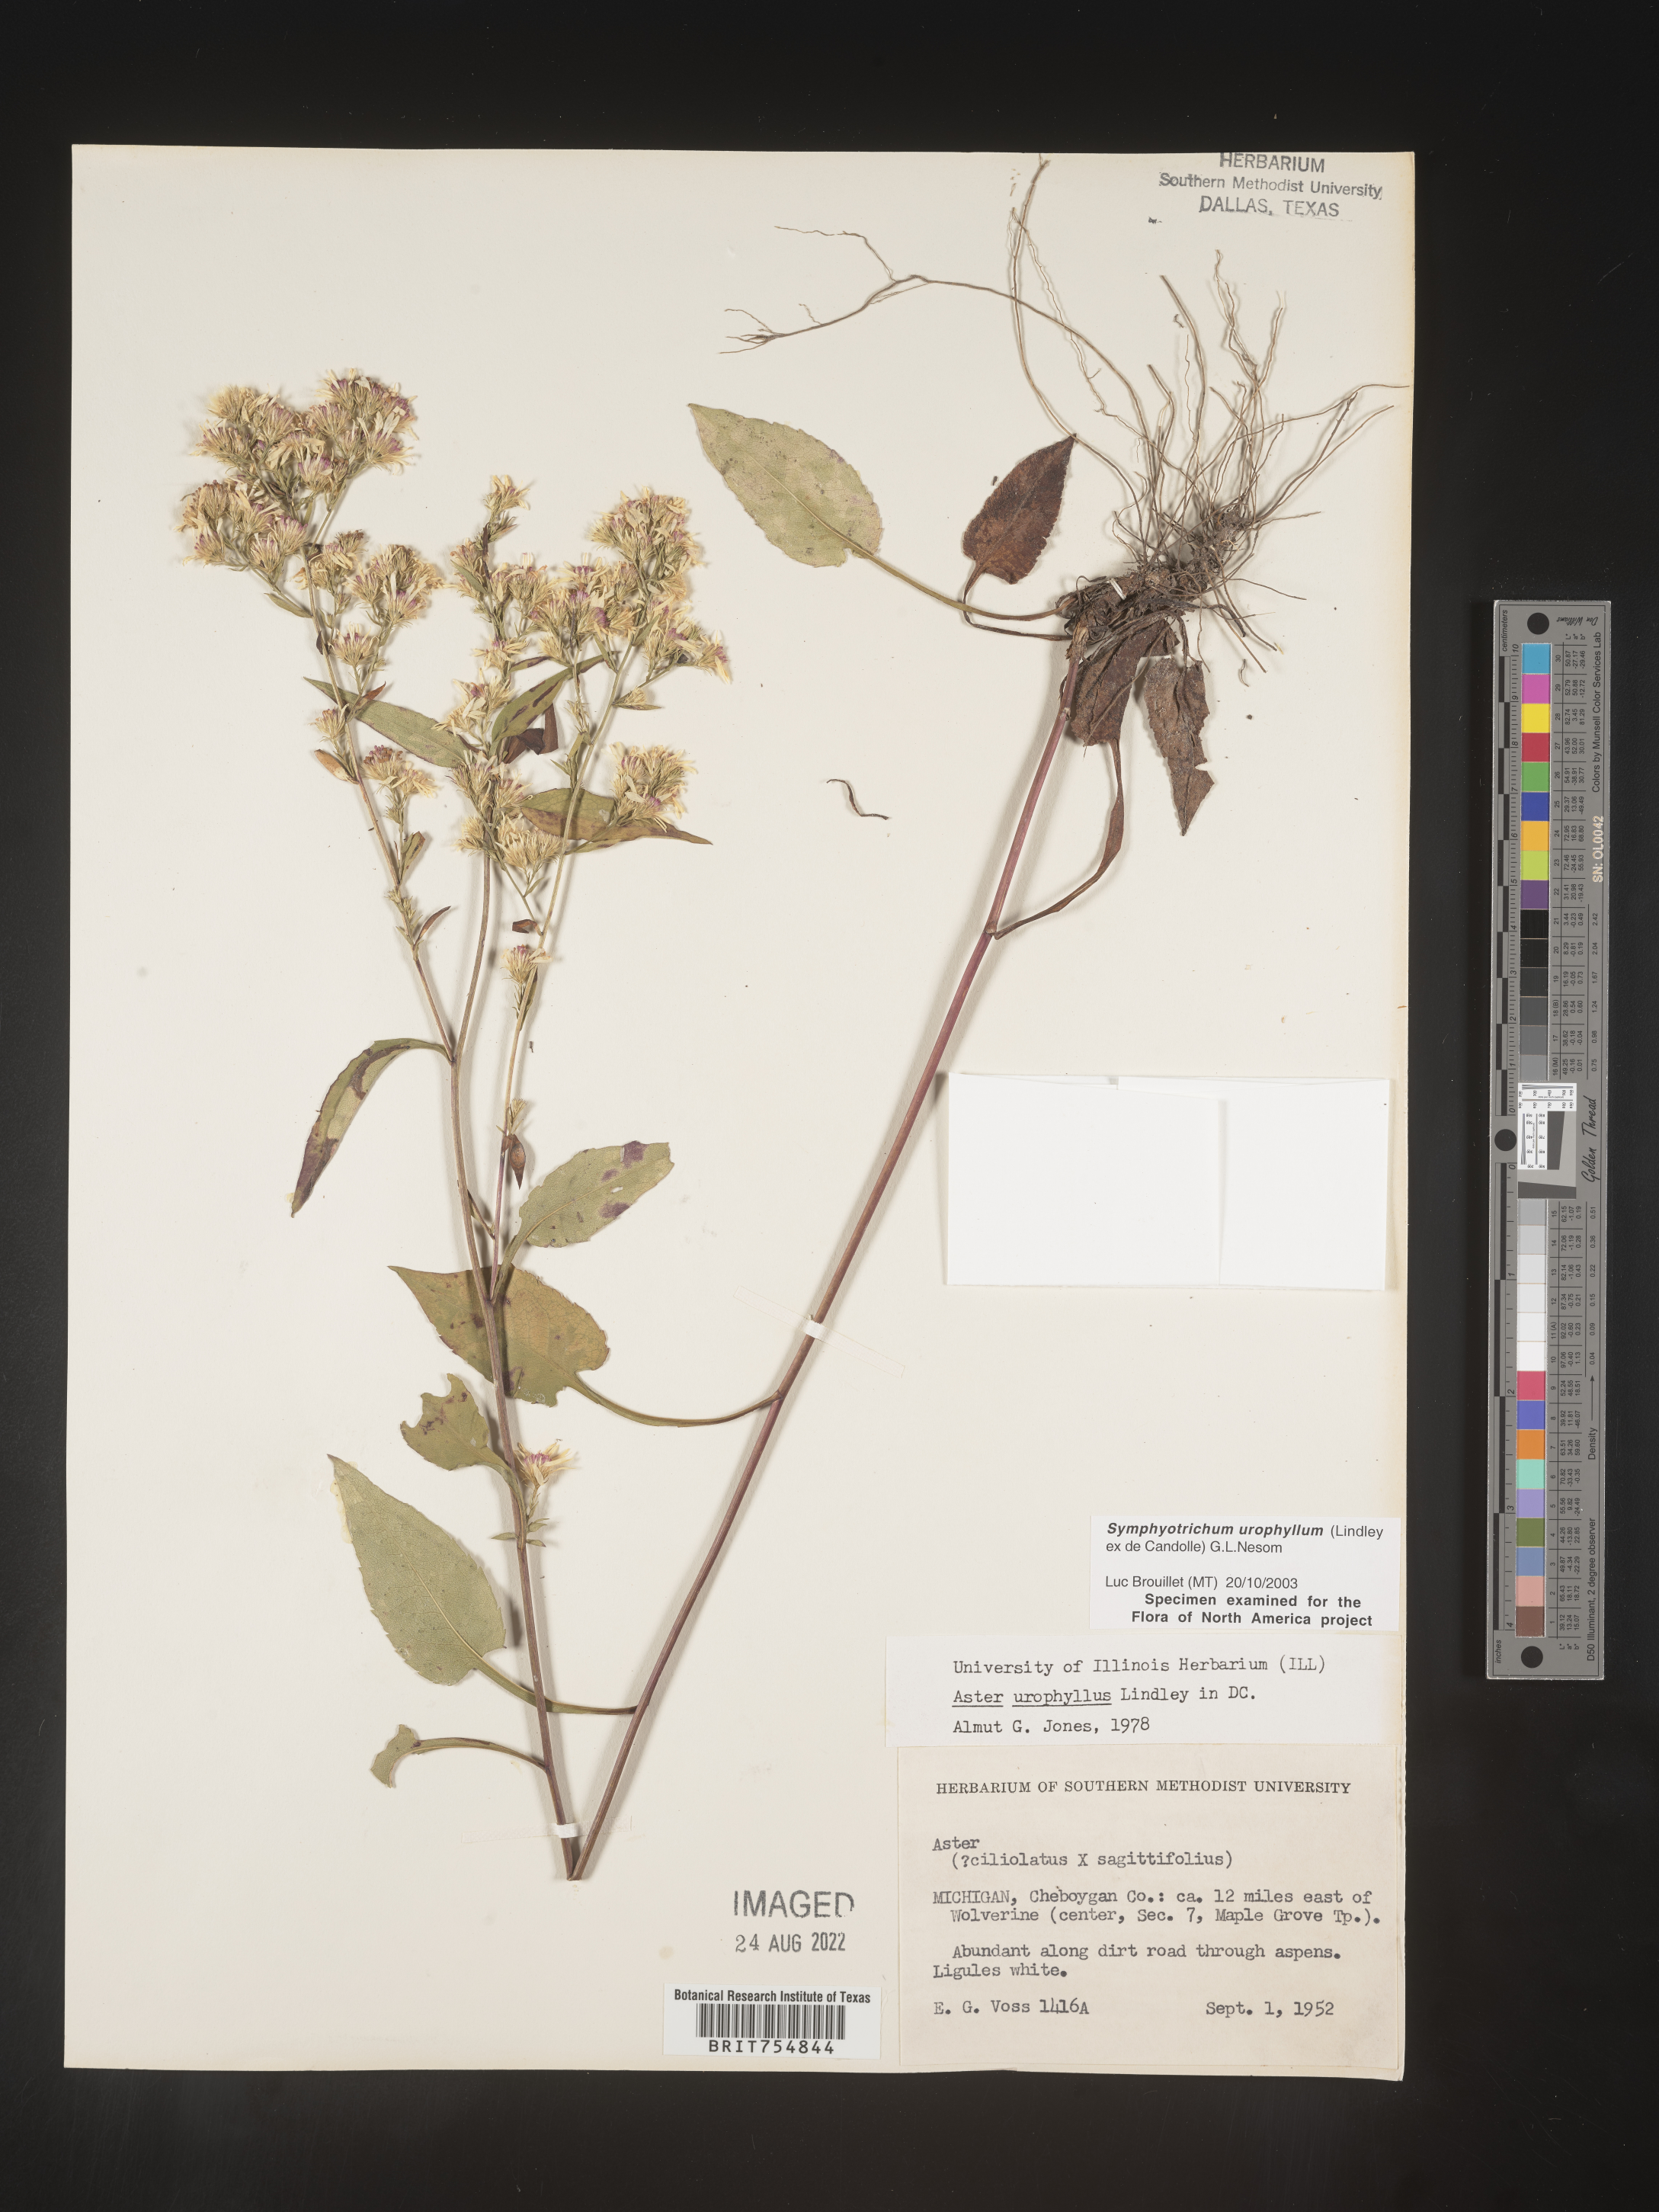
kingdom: Plantae
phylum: Tracheophyta
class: Magnoliopsida
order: Asterales
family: Asteraceae
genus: Symphyotrichum
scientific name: Symphyotrichum urophyllum
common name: Arrow-leaved aster
